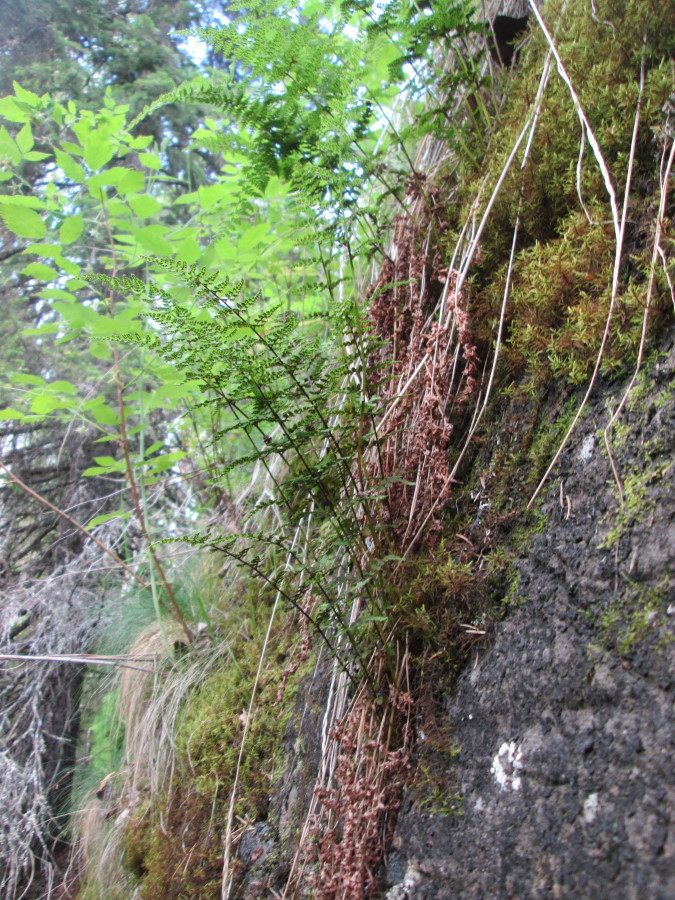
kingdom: Plantae
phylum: Tracheophyta
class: Polypodiopsida
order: Polypodiales
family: Cystopteridaceae
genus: Cystopteris
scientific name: Cystopteris fragilis
